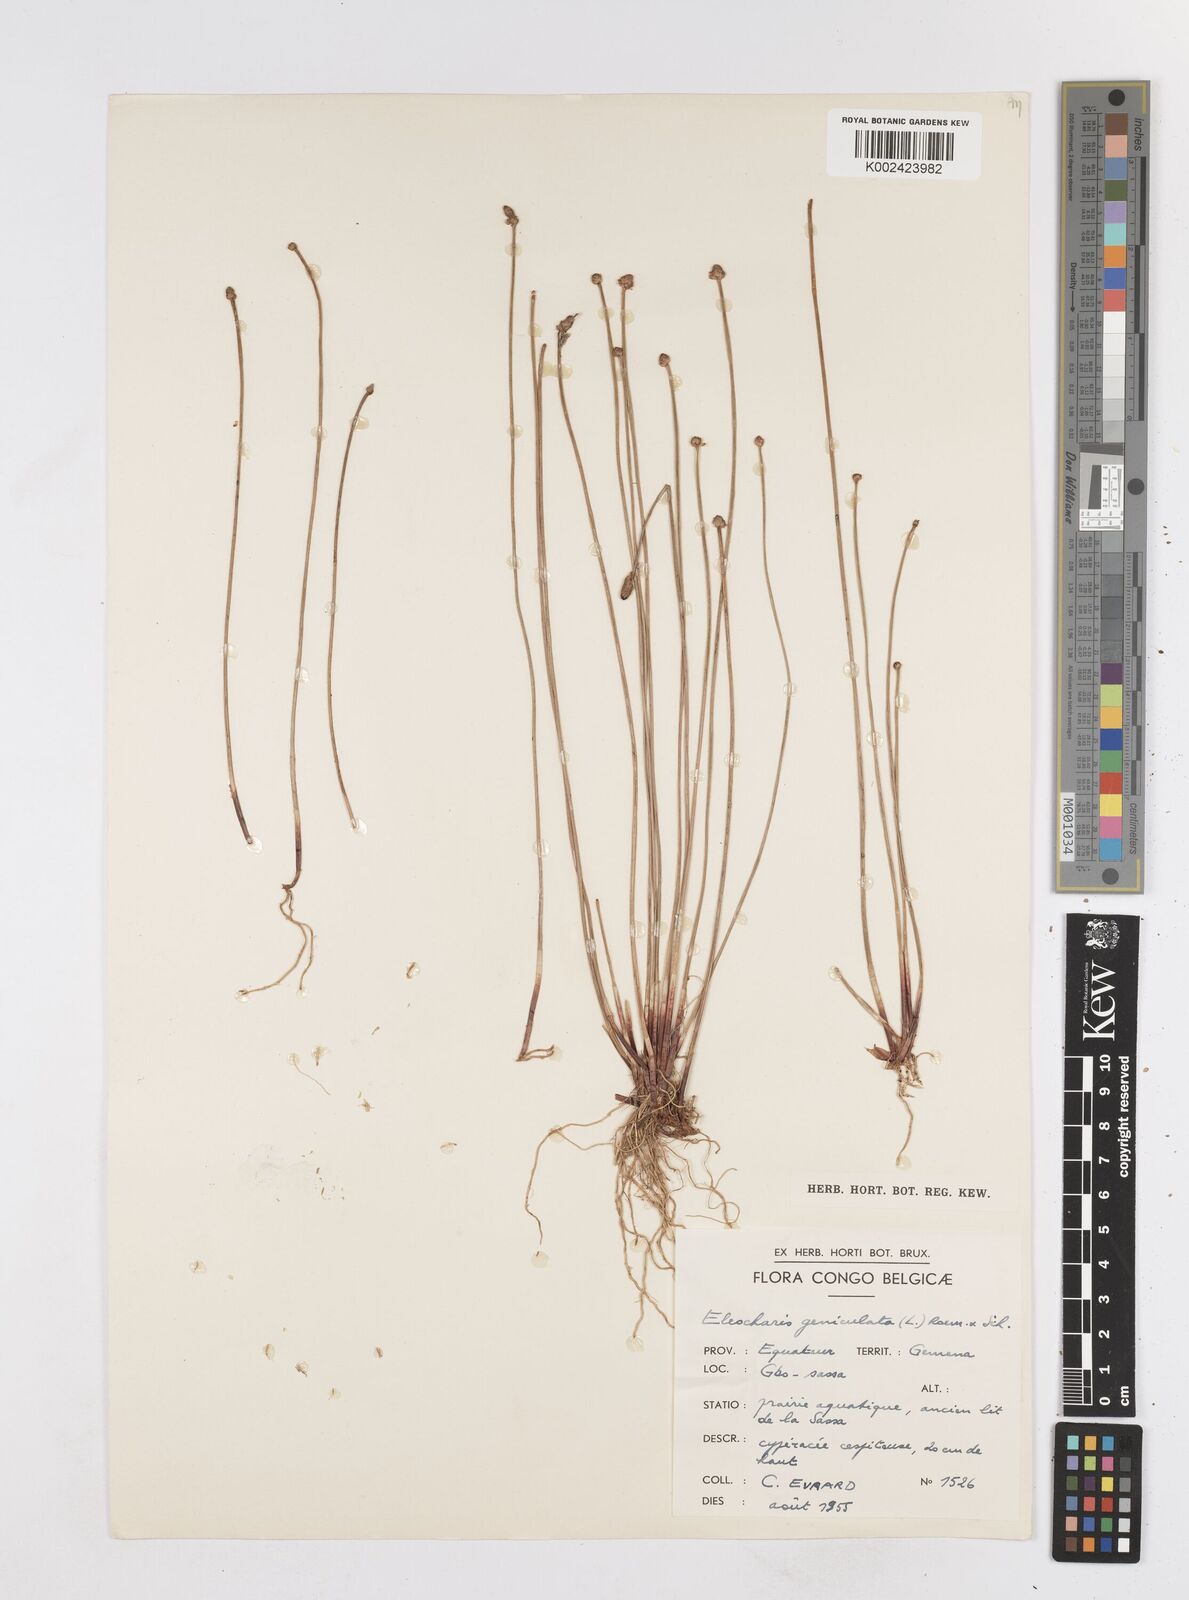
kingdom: Plantae
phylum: Tracheophyta
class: Liliopsida
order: Poales
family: Cyperaceae
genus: Eleocharis
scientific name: Eleocharis geniculata
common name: Canada spikesedge
